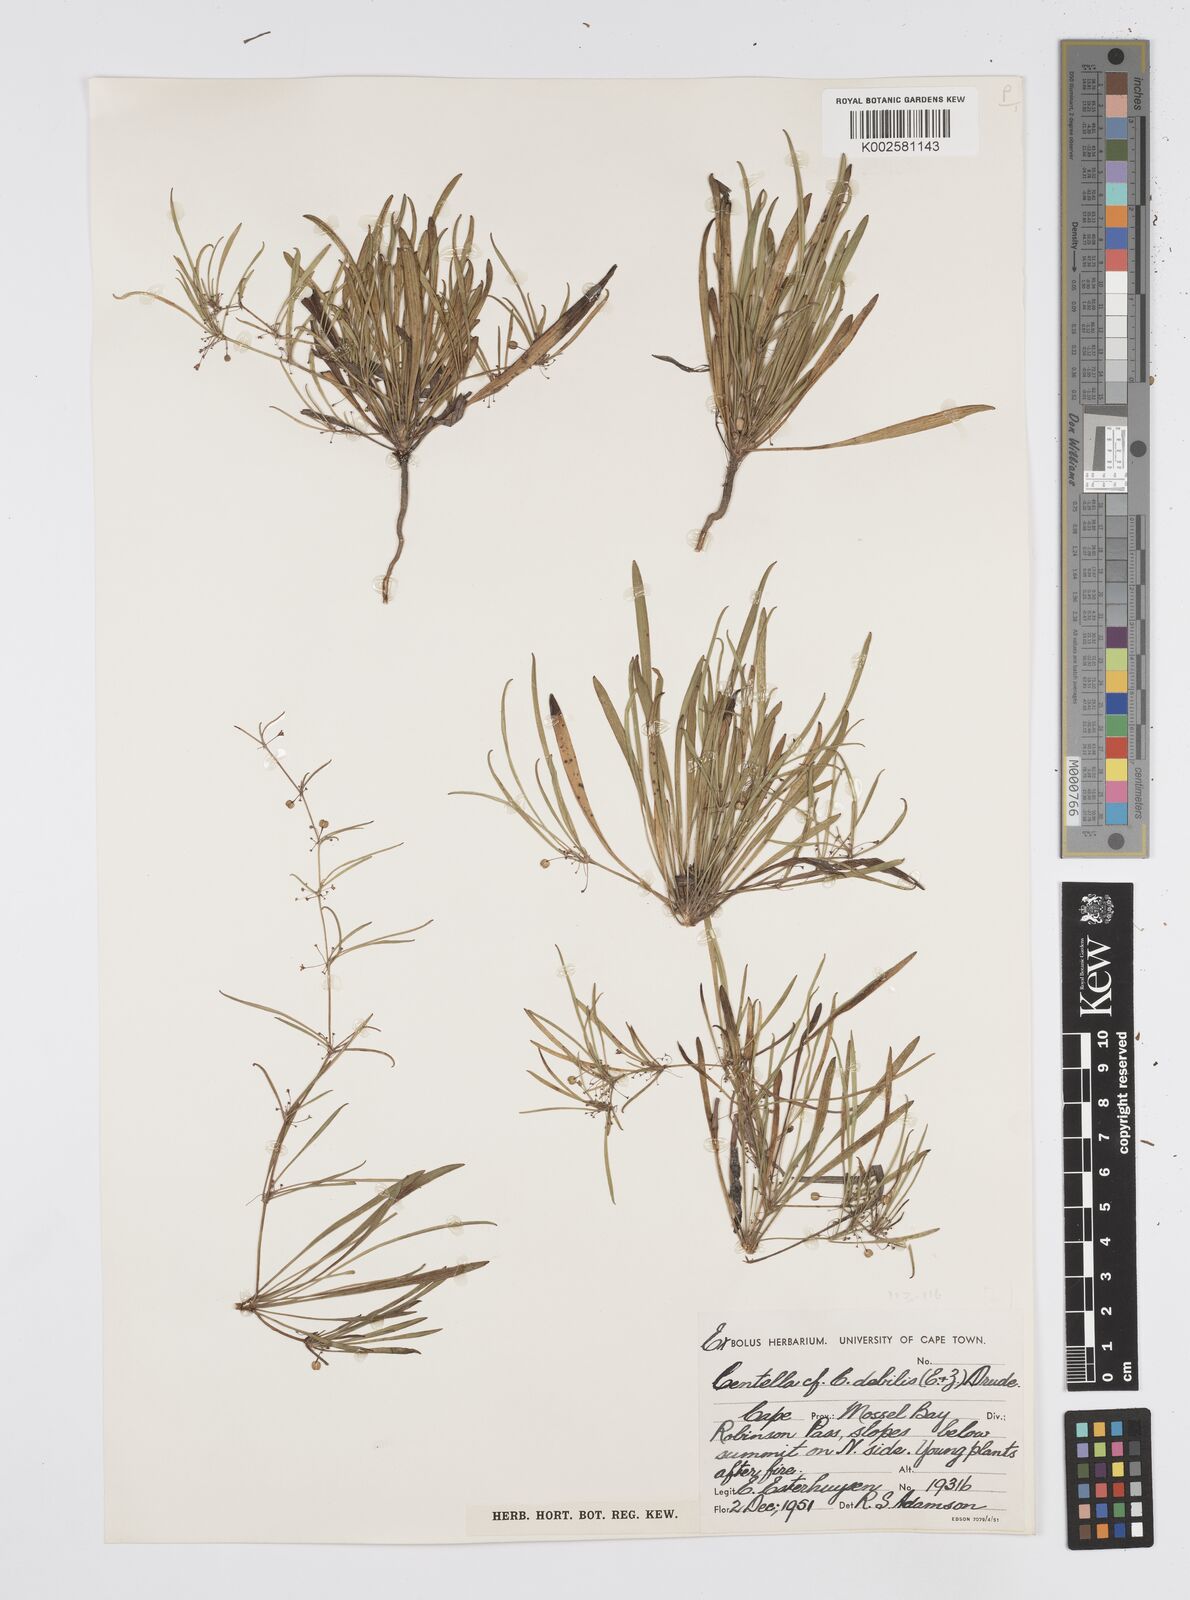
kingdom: Plantae
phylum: Tracheophyta
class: Magnoliopsida
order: Apiales
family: Apiaceae
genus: Centella
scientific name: Centella debilis
